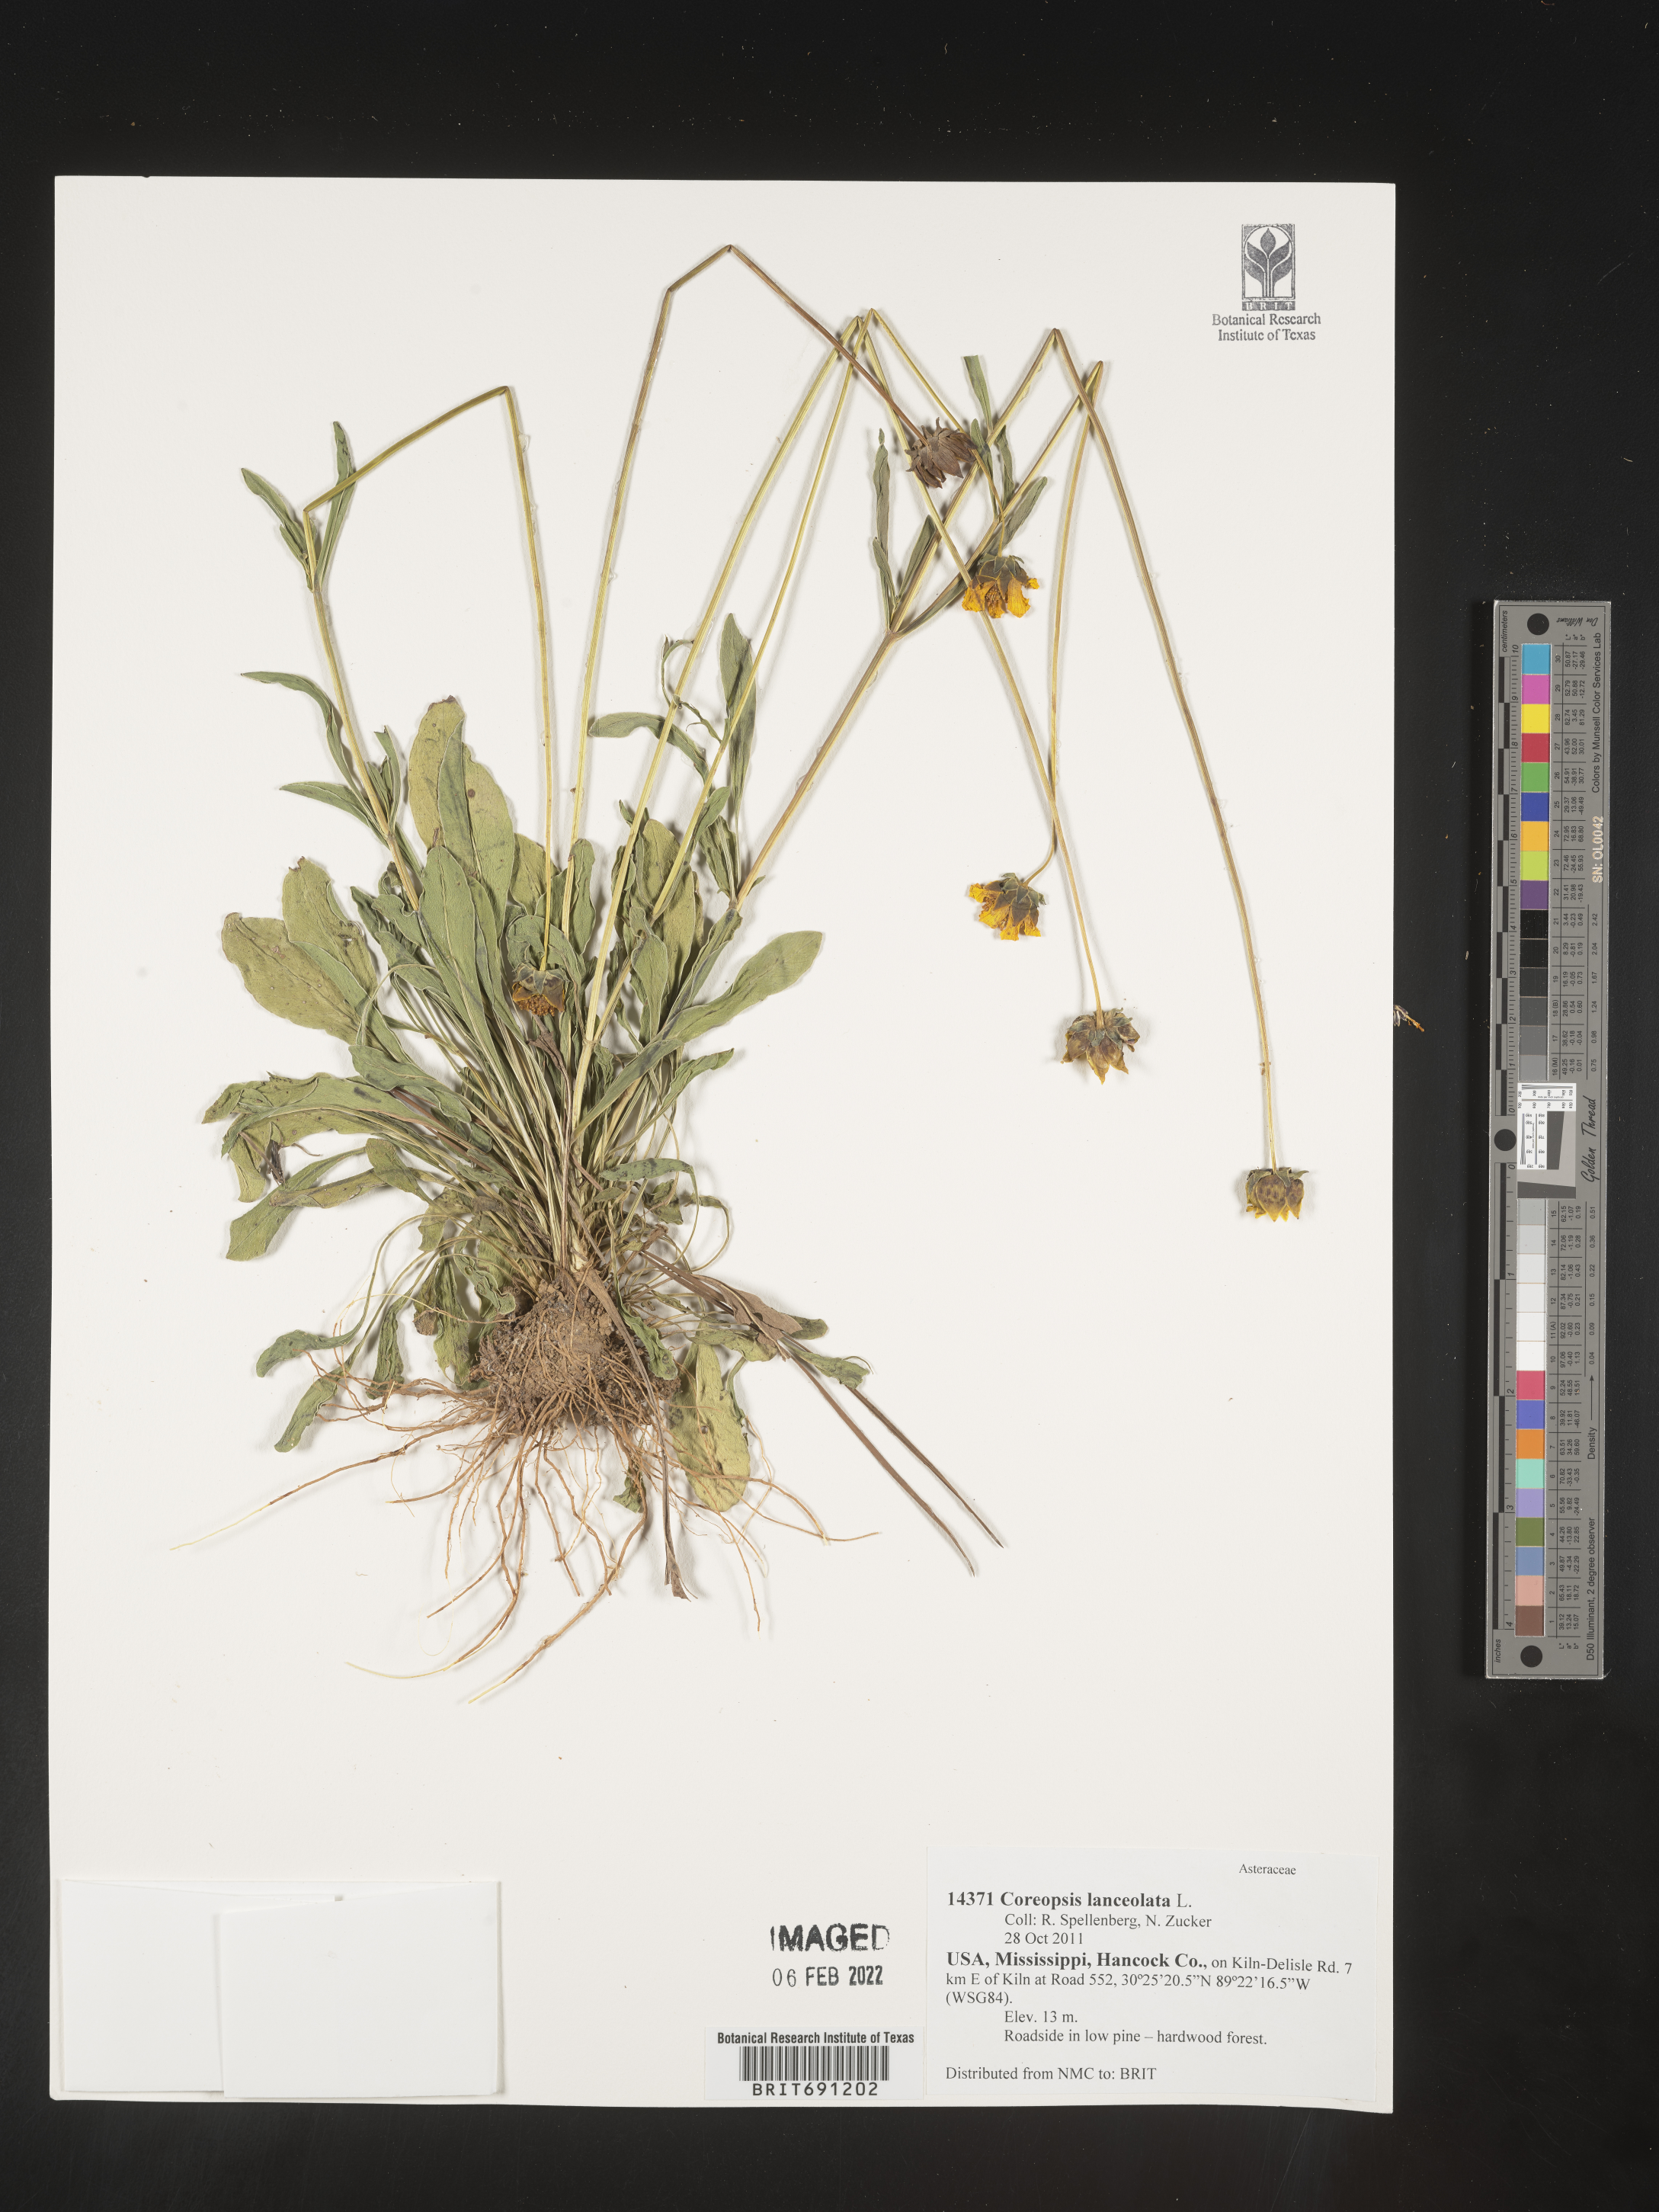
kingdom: Plantae
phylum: Tracheophyta
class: Magnoliopsida
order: Asterales
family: Asteraceae
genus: Coreopsis
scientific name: Coreopsis lanceolata
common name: Garden coreopsis
